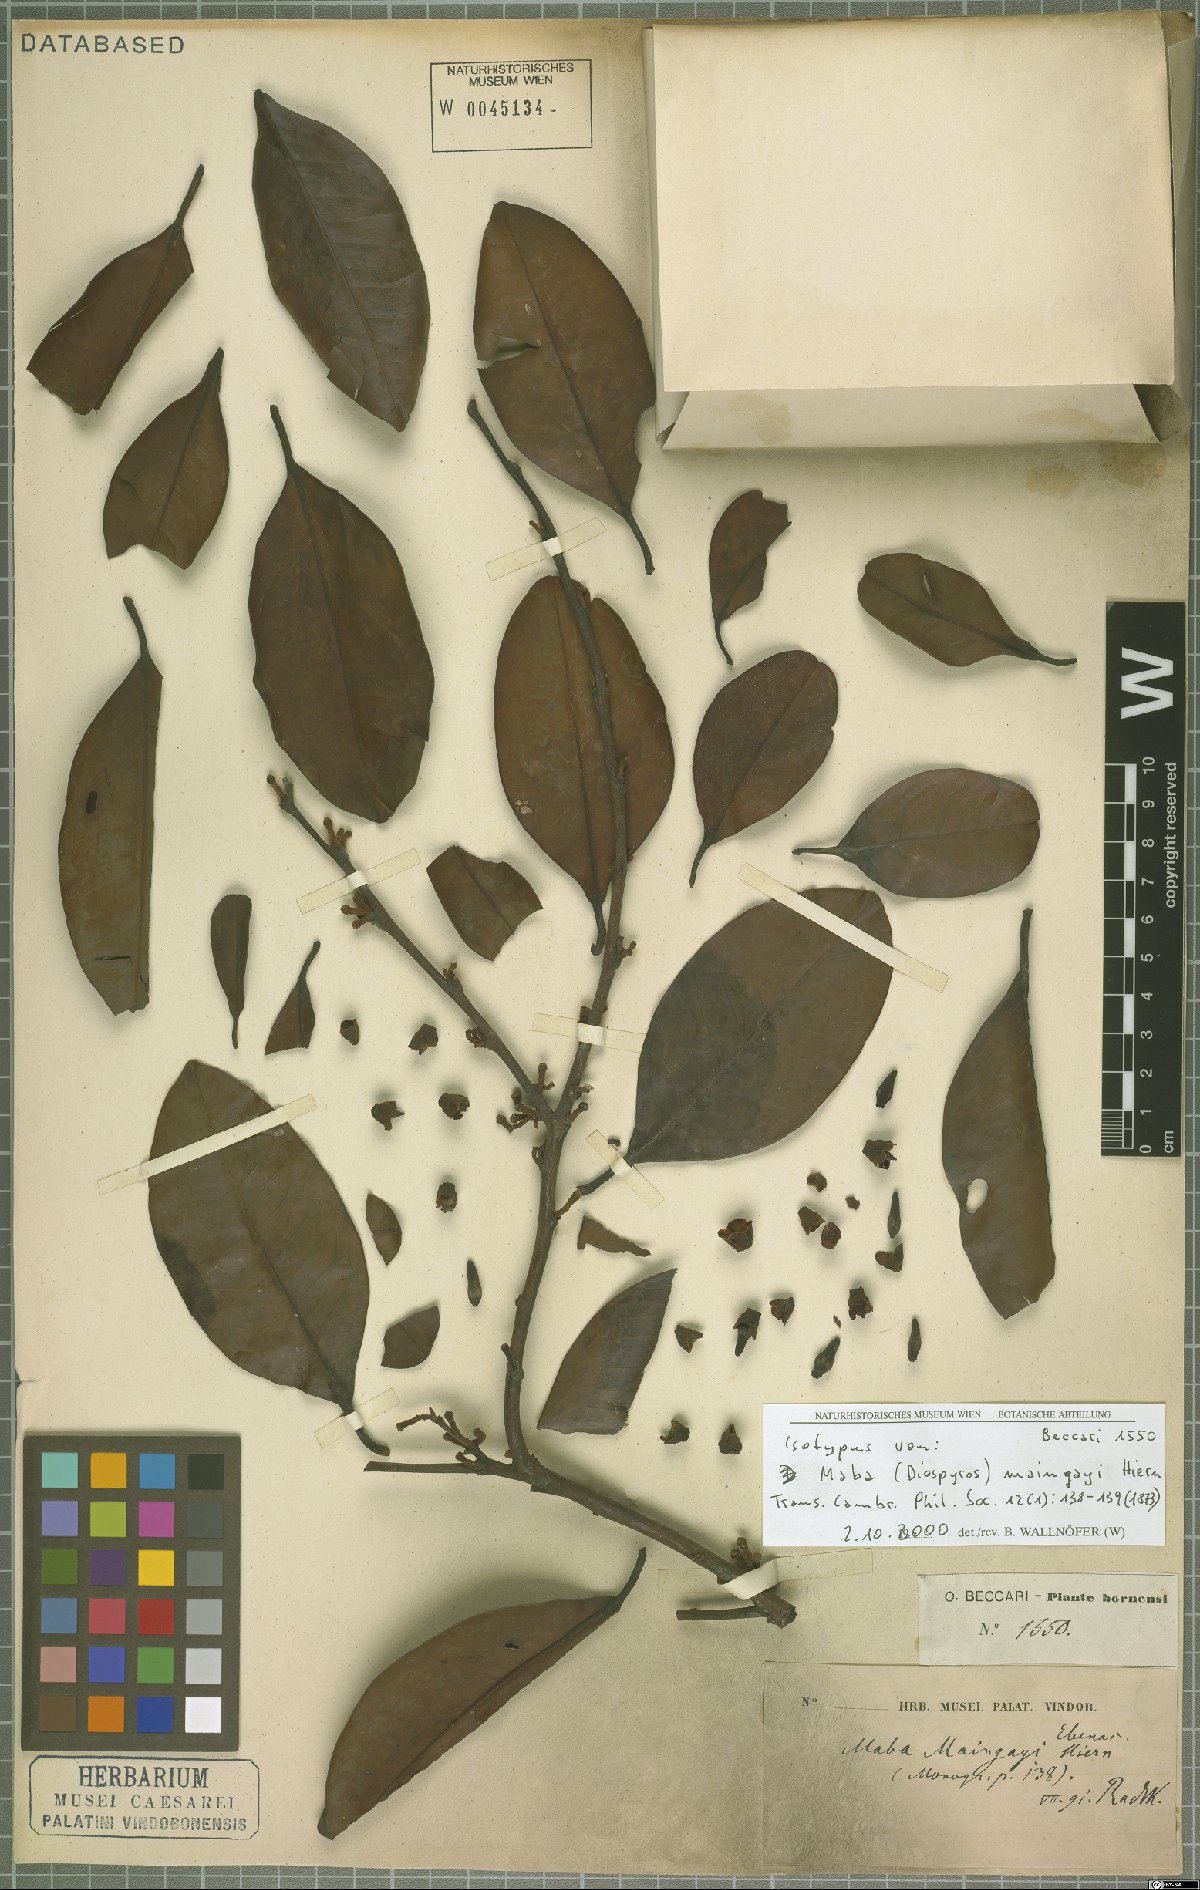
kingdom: Plantae
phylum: Tracheophyta
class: Magnoliopsida
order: Ericales
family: Ebenaceae
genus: Diospyros
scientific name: Diospyros maingayi
